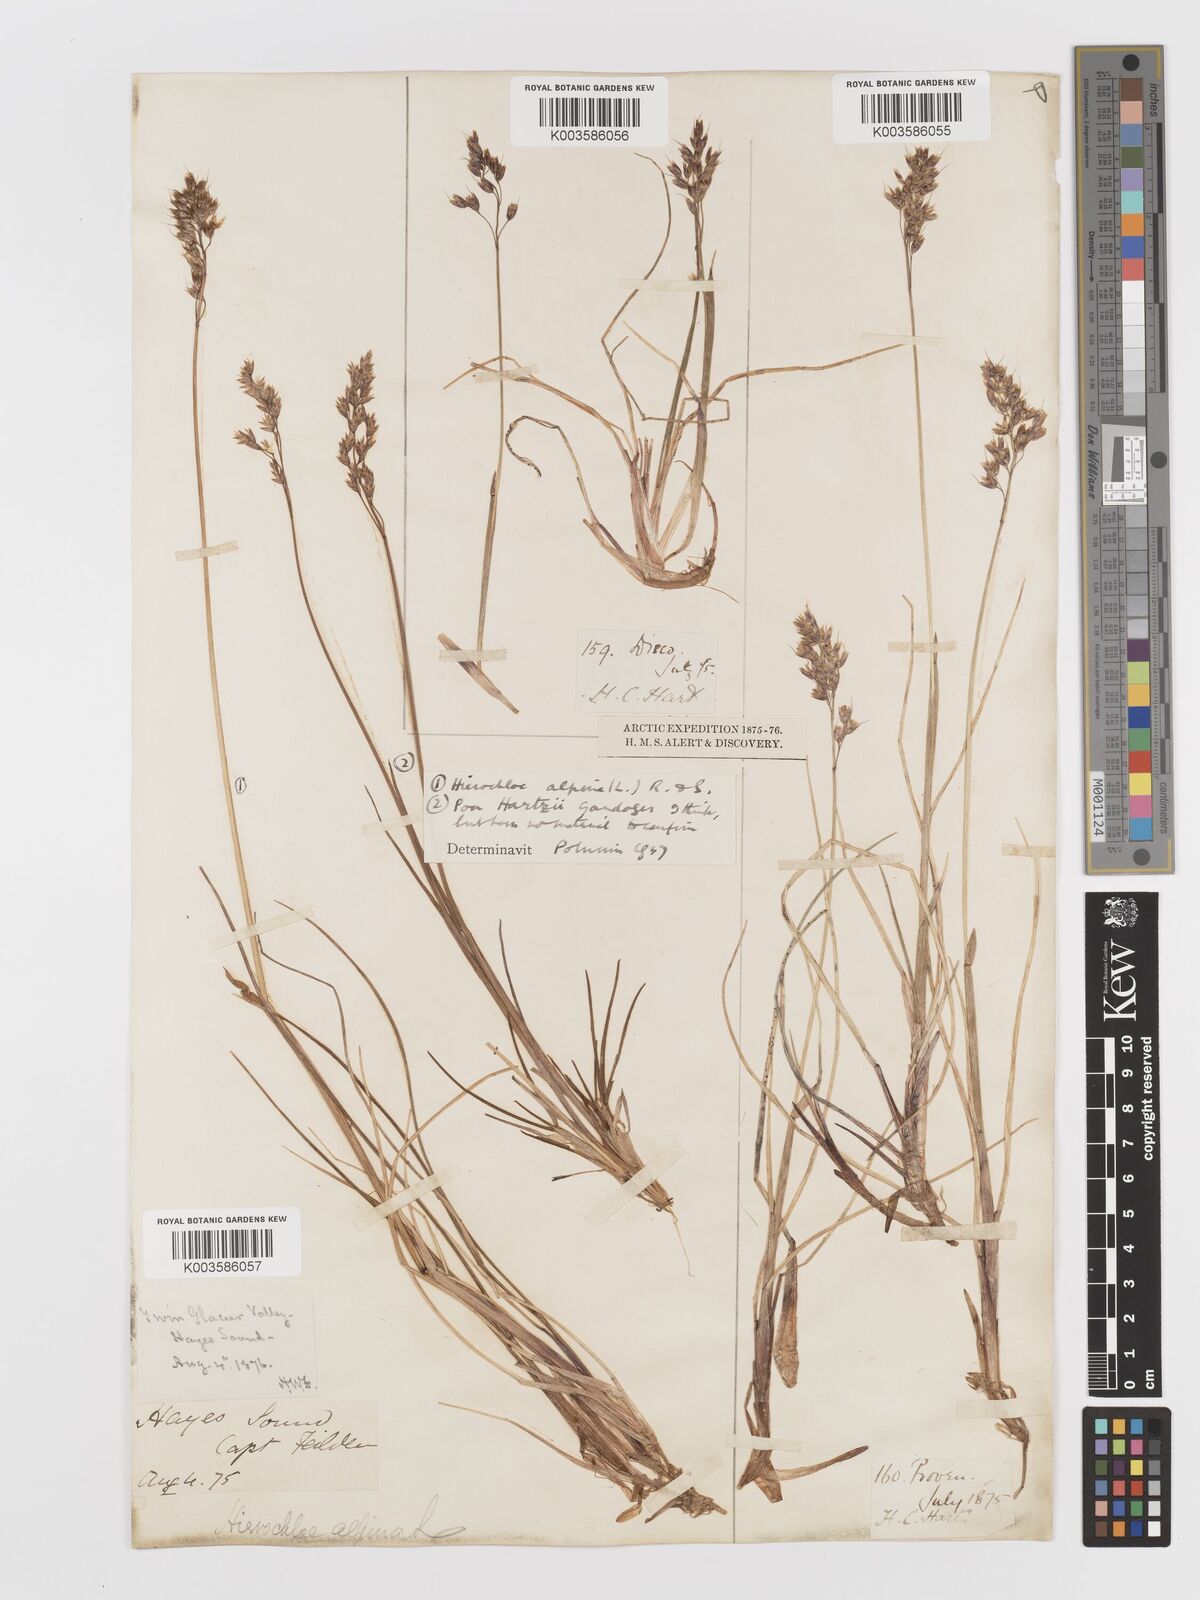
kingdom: Plantae
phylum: Tracheophyta
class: Liliopsida
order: Poales
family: Poaceae
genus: Anthoxanthum
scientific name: Anthoxanthum monticola
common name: Alpine sweetgrass
